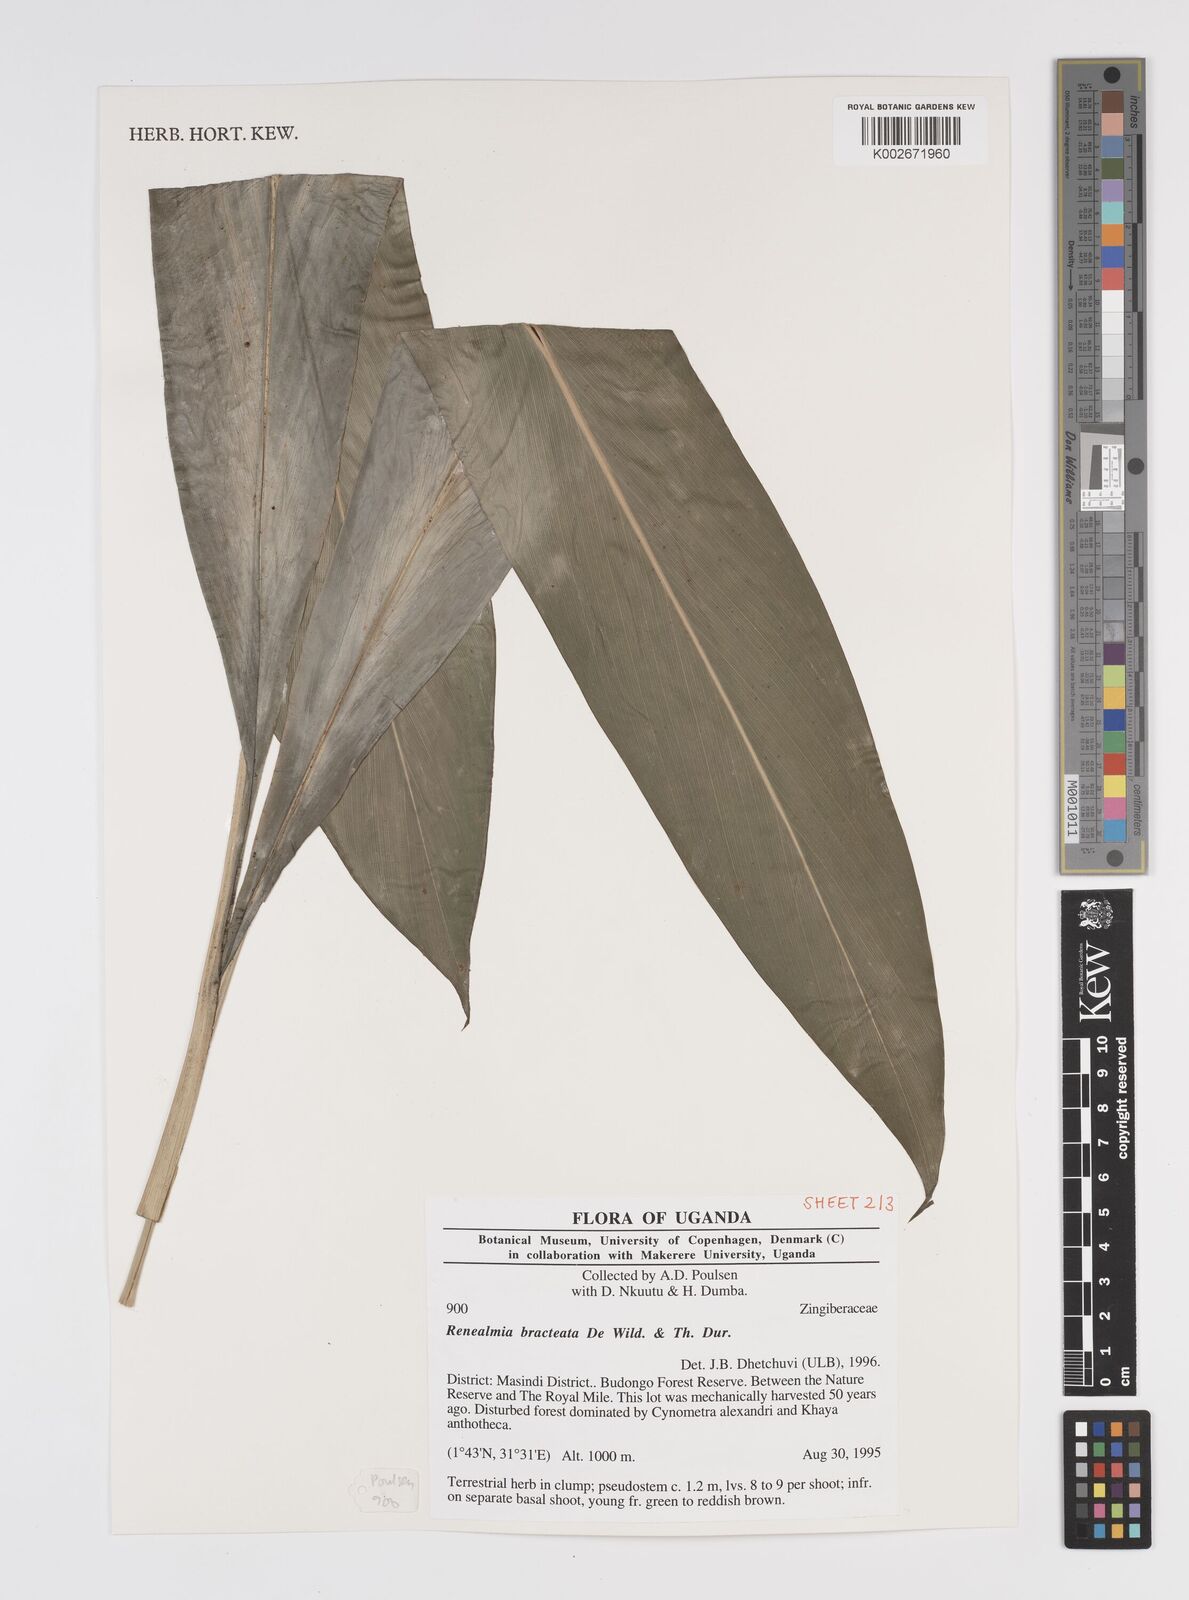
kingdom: Plantae
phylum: Tracheophyta
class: Liliopsida
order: Zingiberales
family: Zingiberaceae
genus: Renealmia
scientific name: Renealmia bracteata
